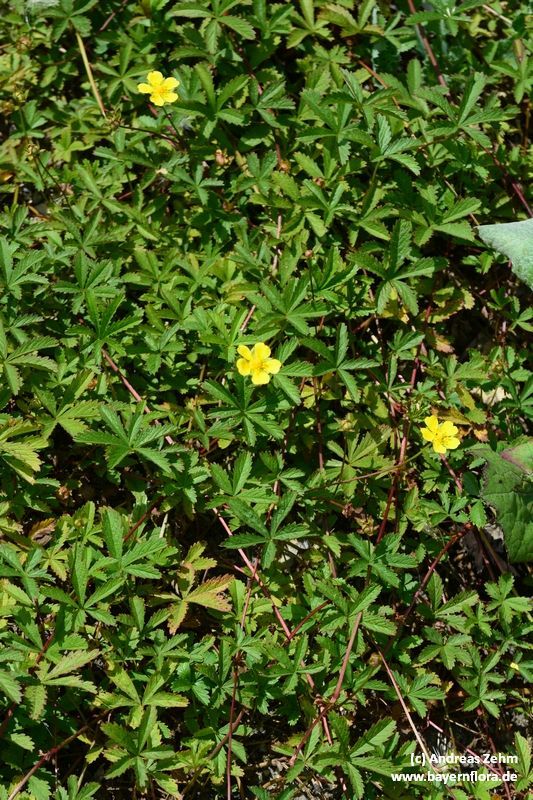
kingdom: Plantae
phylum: Tracheophyta
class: Magnoliopsida
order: Rosales
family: Rosaceae
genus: Potentilla
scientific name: Potentilla reptans
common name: Creeping cinquefoil
